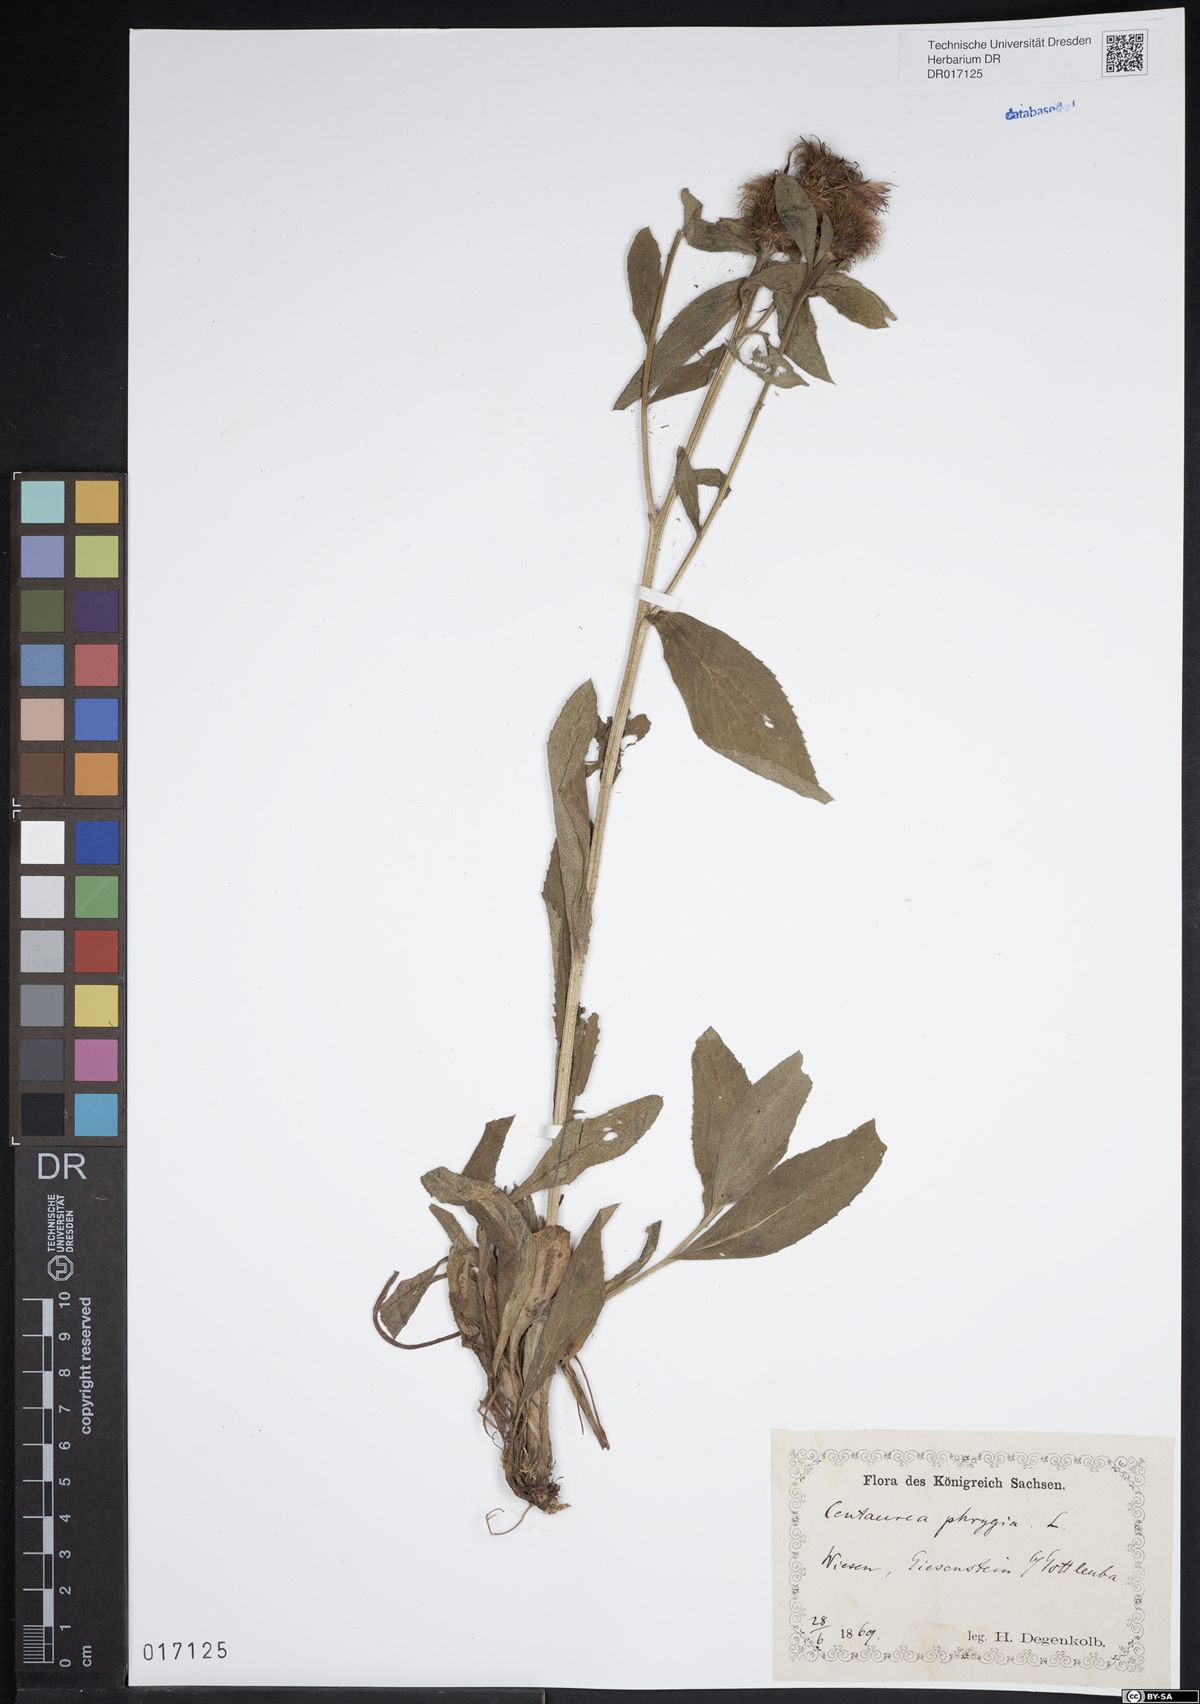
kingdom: Plantae
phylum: Tracheophyta
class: Magnoliopsida
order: Asterales
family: Asteraceae
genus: Centaurea
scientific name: Centaurea pseudophrygia
